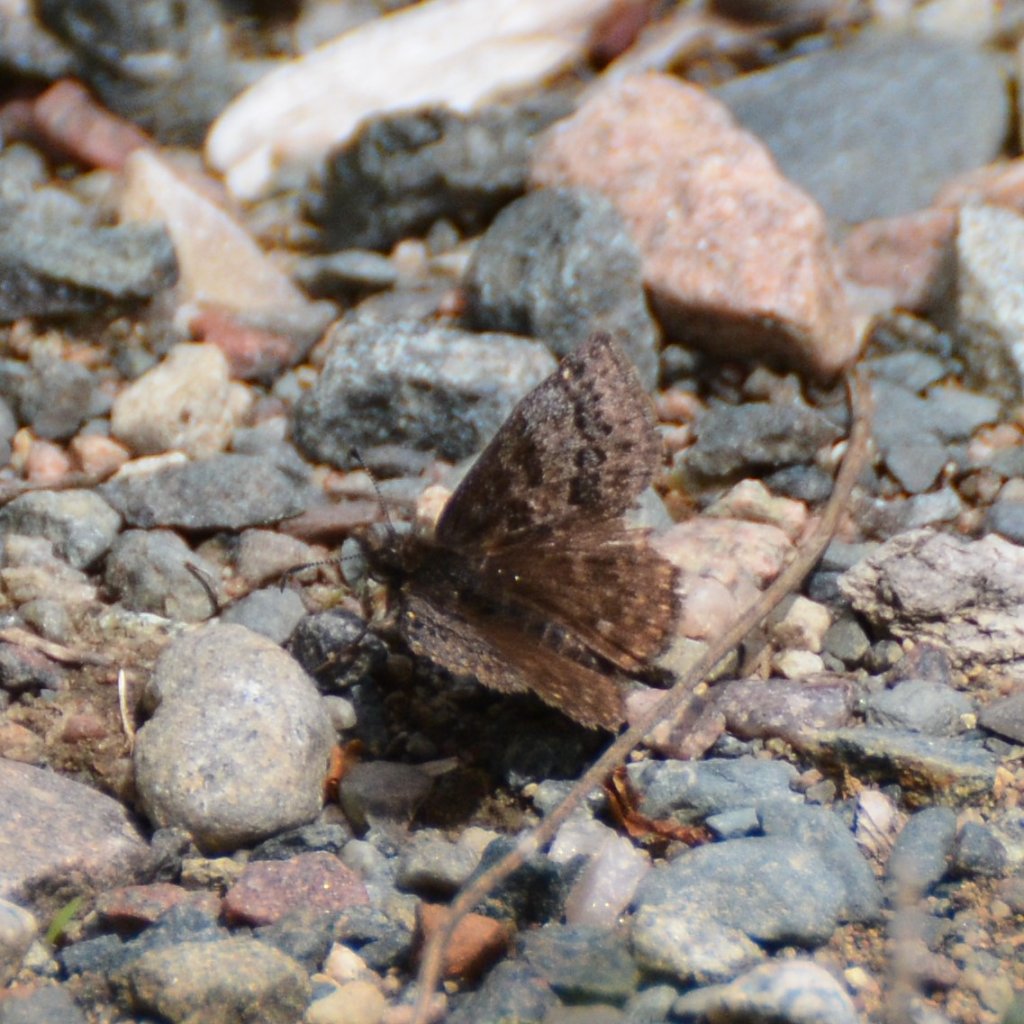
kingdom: Animalia
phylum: Arthropoda
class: Insecta
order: Lepidoptera
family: Hesperiidae
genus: Erynnis
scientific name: Erynnis icelus
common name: Dreamy Duskywing
